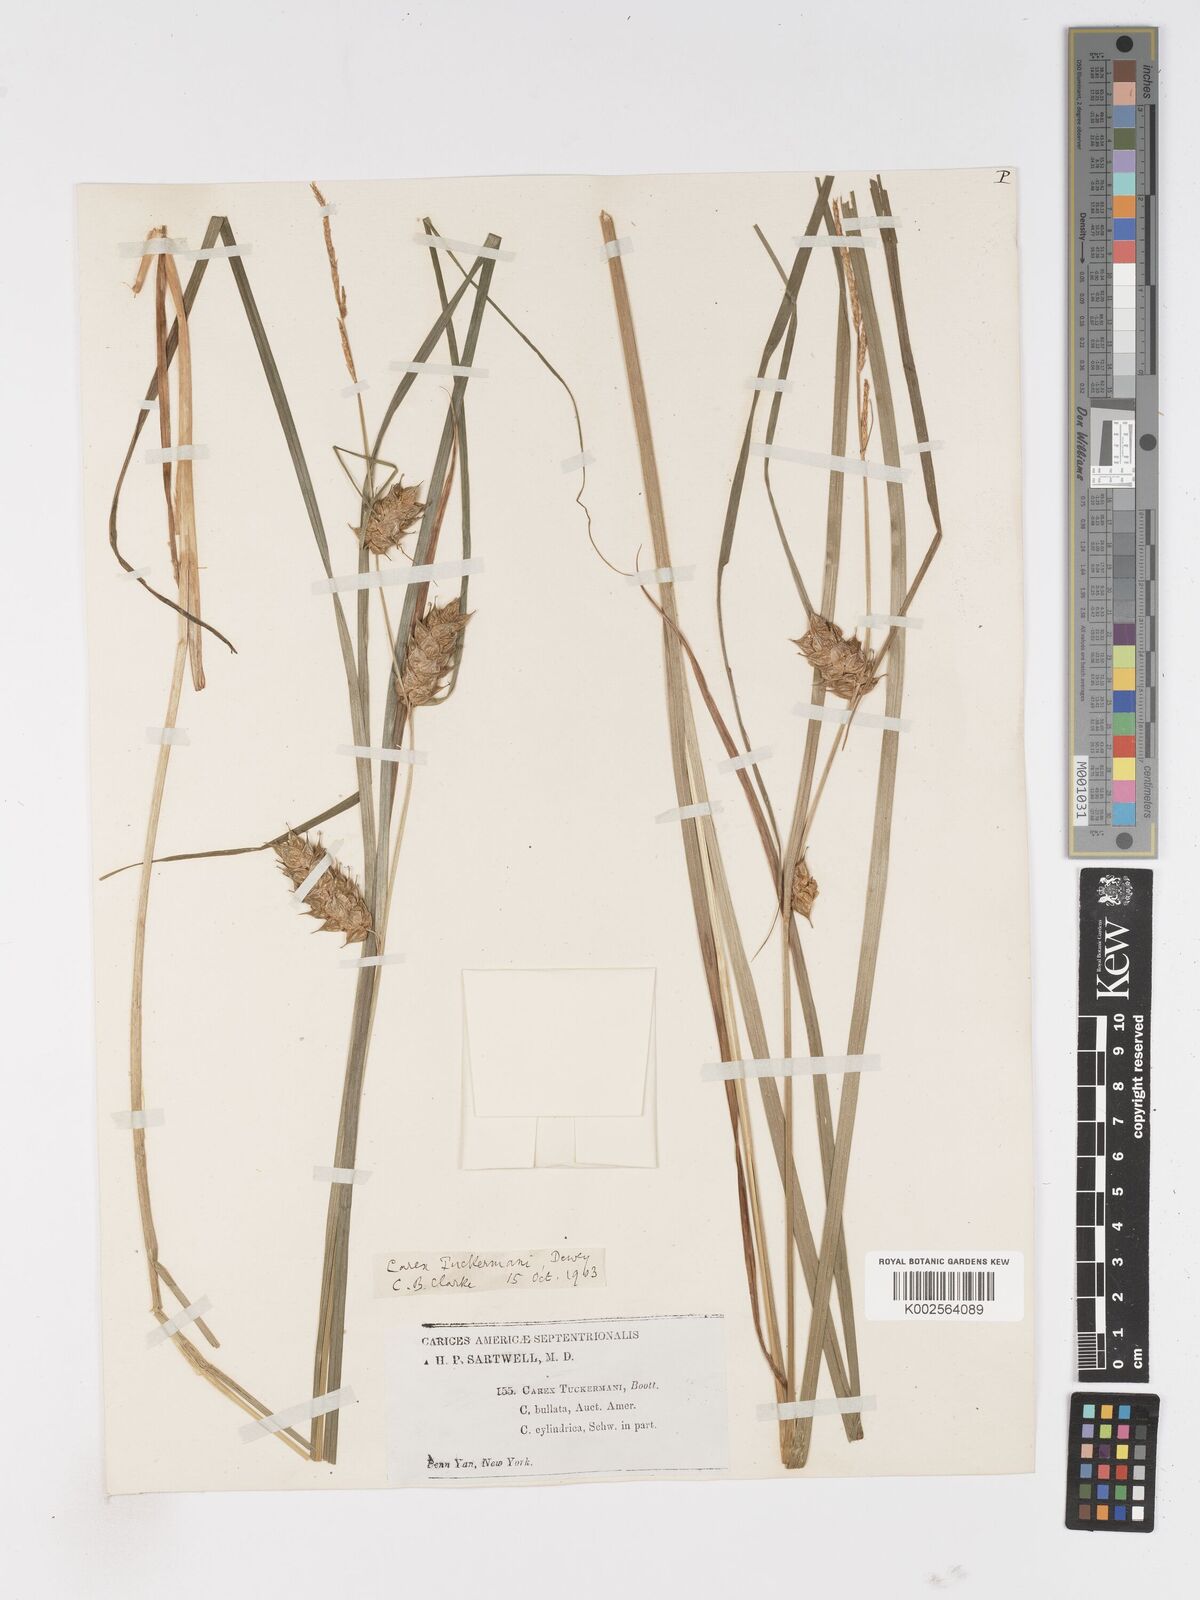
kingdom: Plantae
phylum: Tracheophyta
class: Liliopsida
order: Poales
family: Cyperaceae
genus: Carex
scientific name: Carex tuckermanii
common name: Tuckerman's sedge
